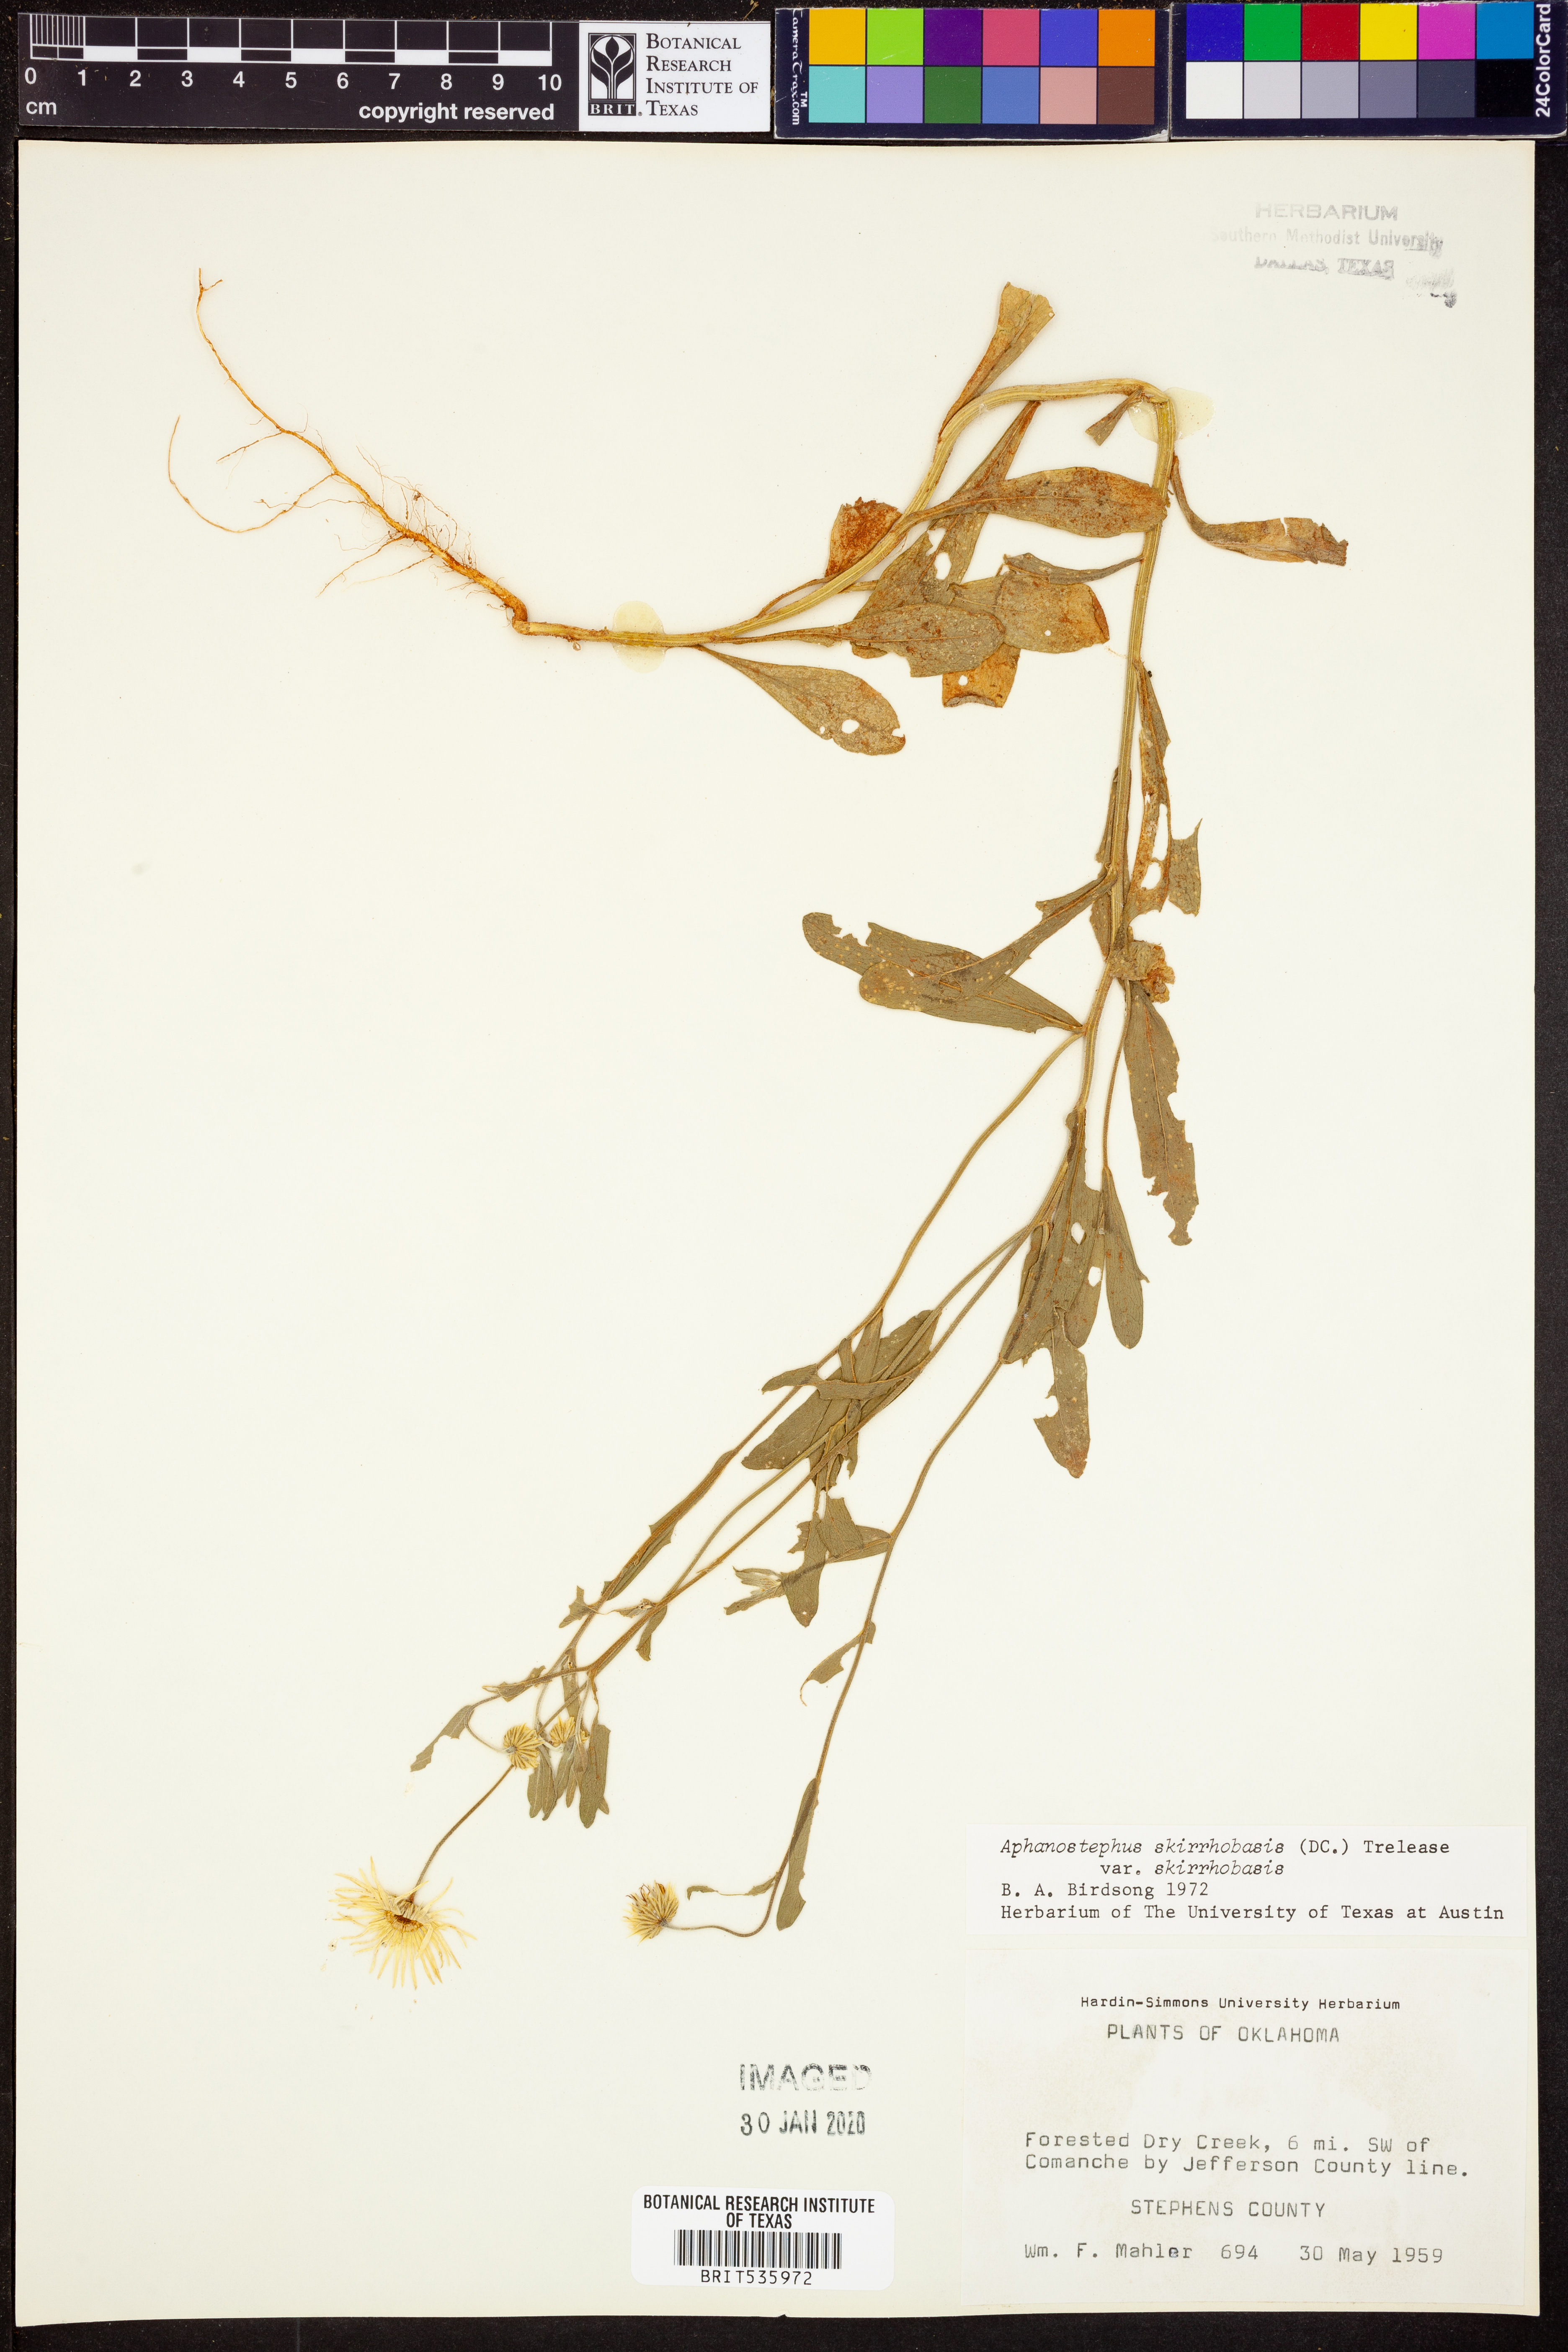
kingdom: Plantae
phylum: Tracheophyta
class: Magnoliopsida
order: Asterales
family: Asteraceae
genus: Aphanostephus
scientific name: Aphanostephus skirrhobasis
